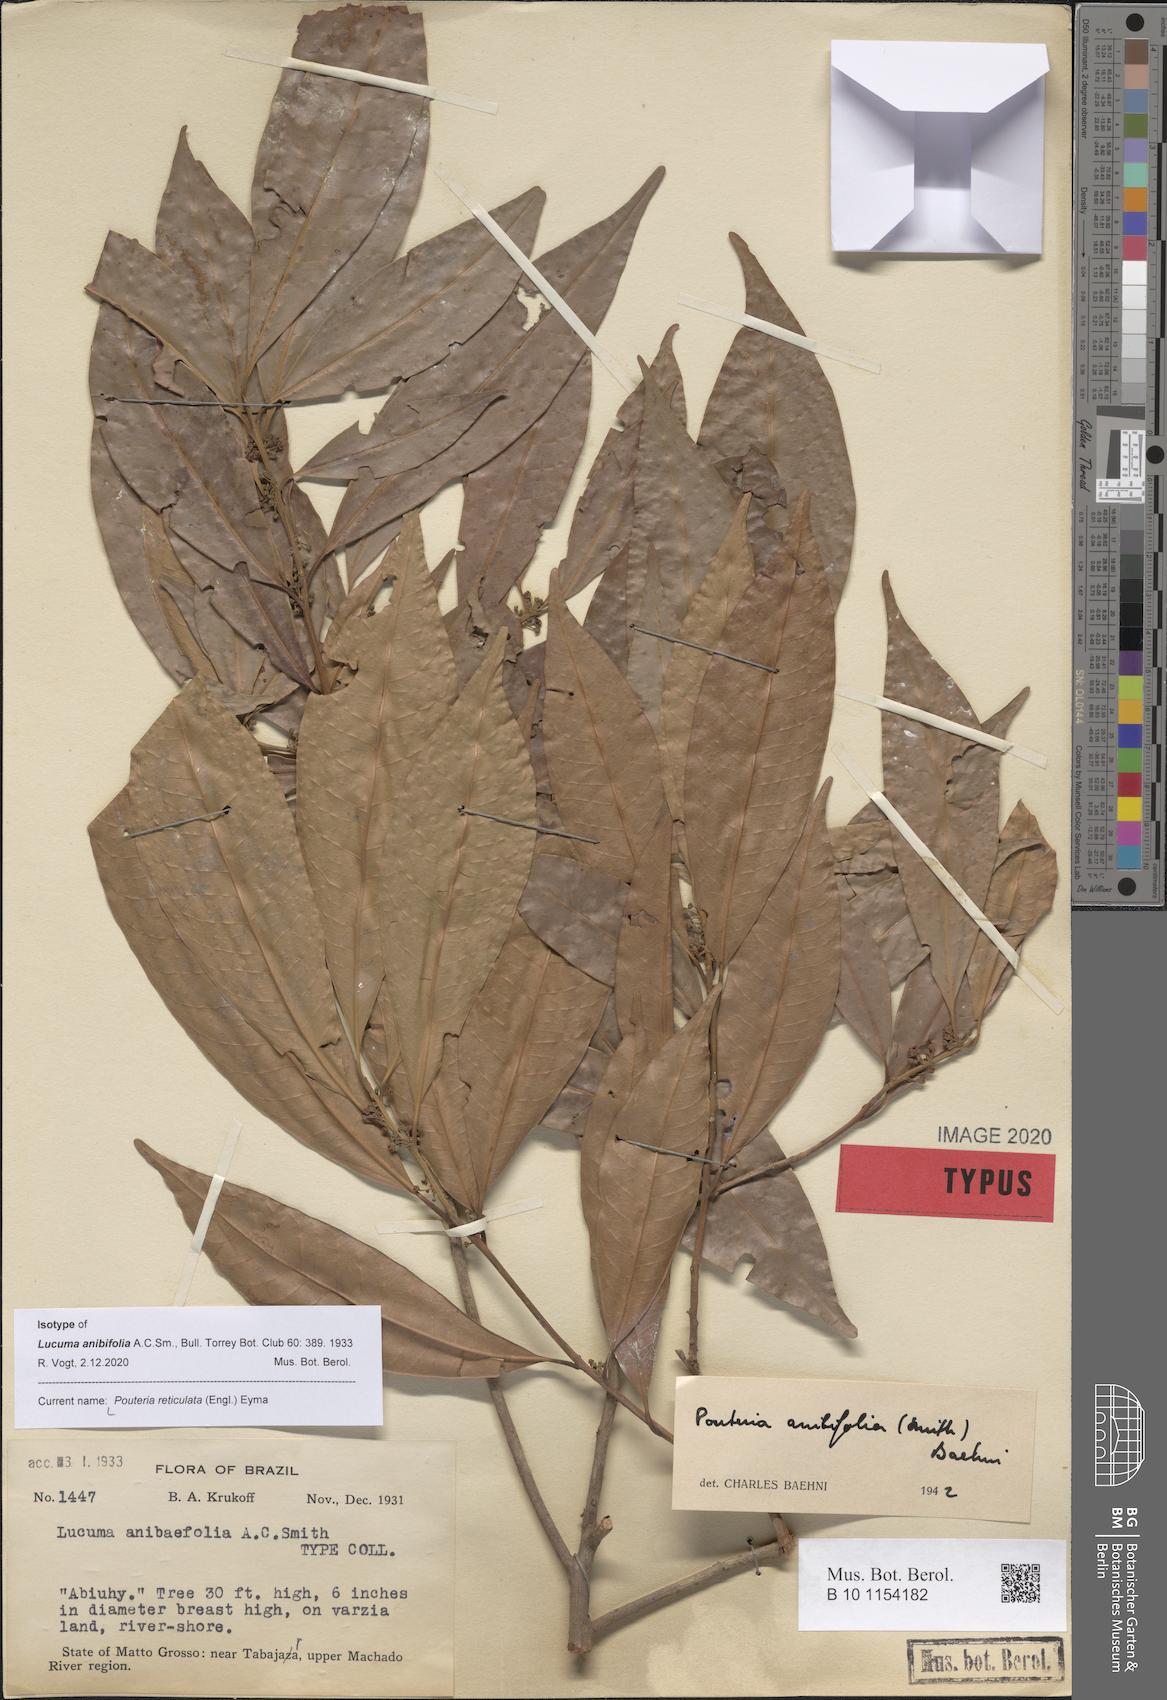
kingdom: Plantae
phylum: Tracheophyta
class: Magnoliopsida
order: Ericales
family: Sapotaceae
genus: Pouteria
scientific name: Pouteria reticulata
